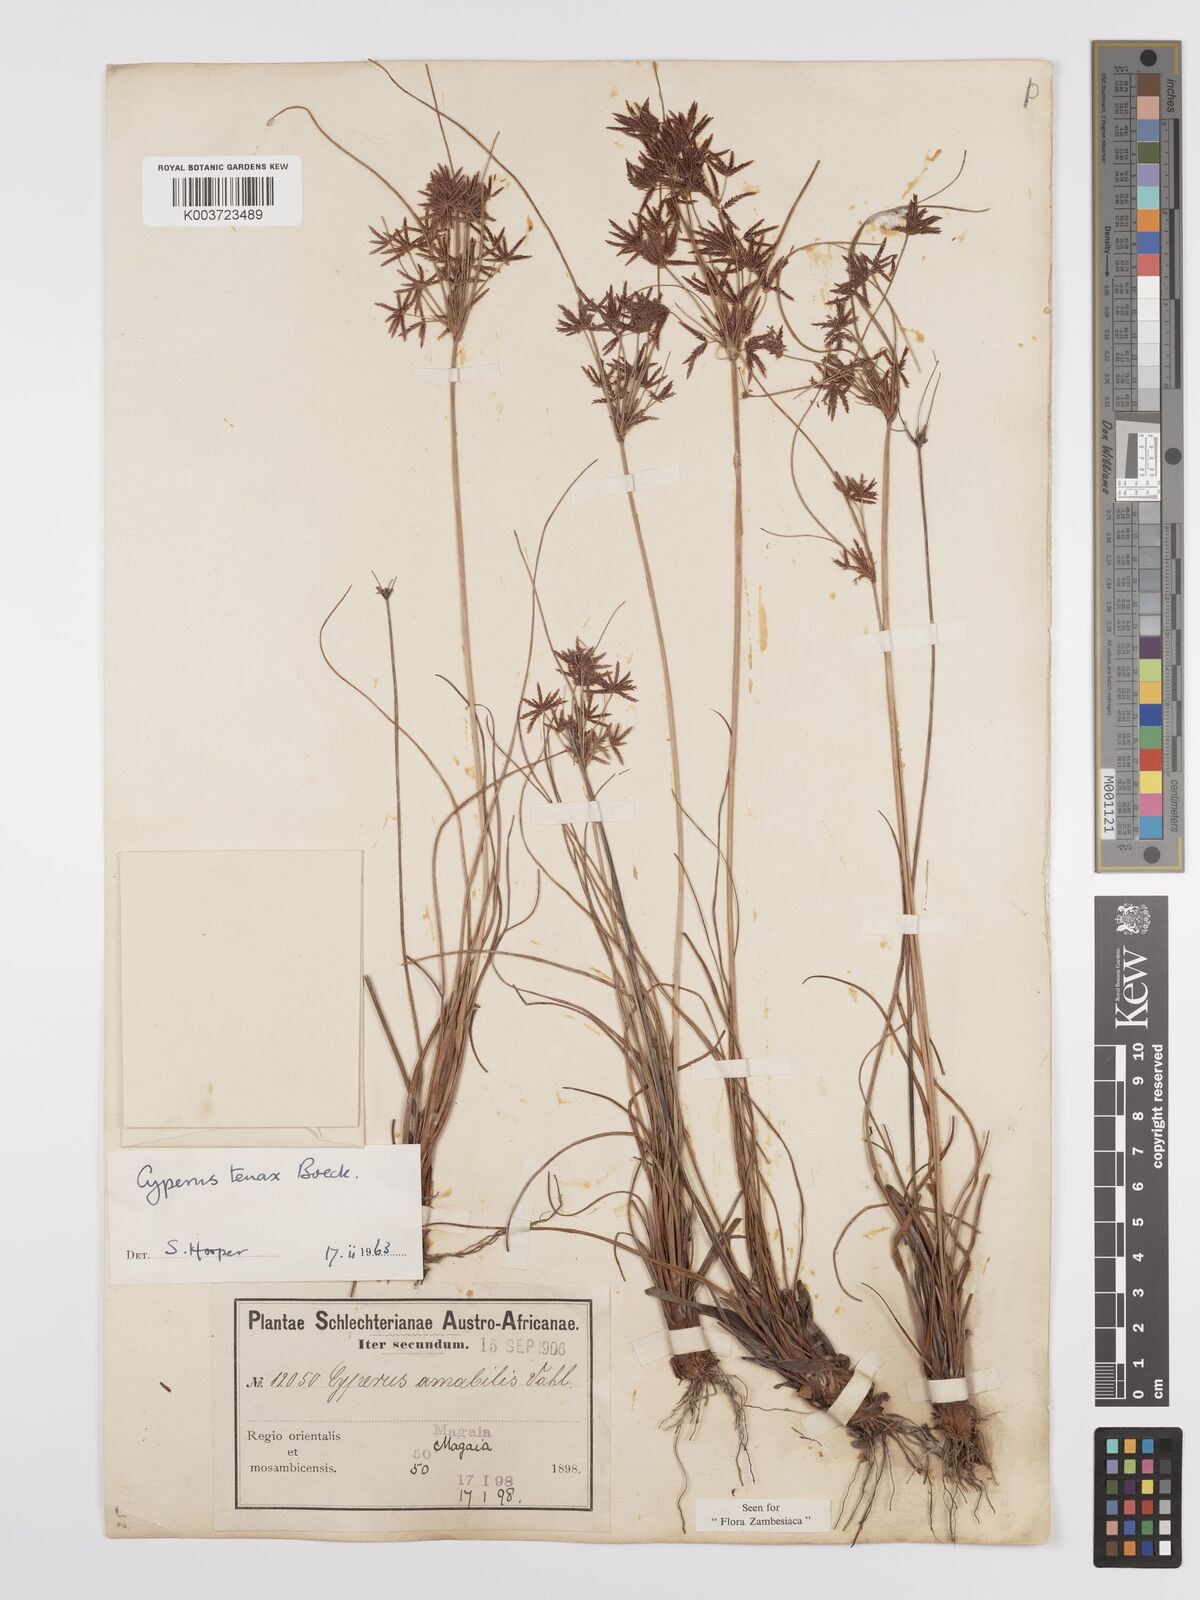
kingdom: Plantae
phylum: Tracheophyta
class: Liliopsida
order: Poales
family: Cyperaceae
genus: Cyperus
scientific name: Cyperus tenax
